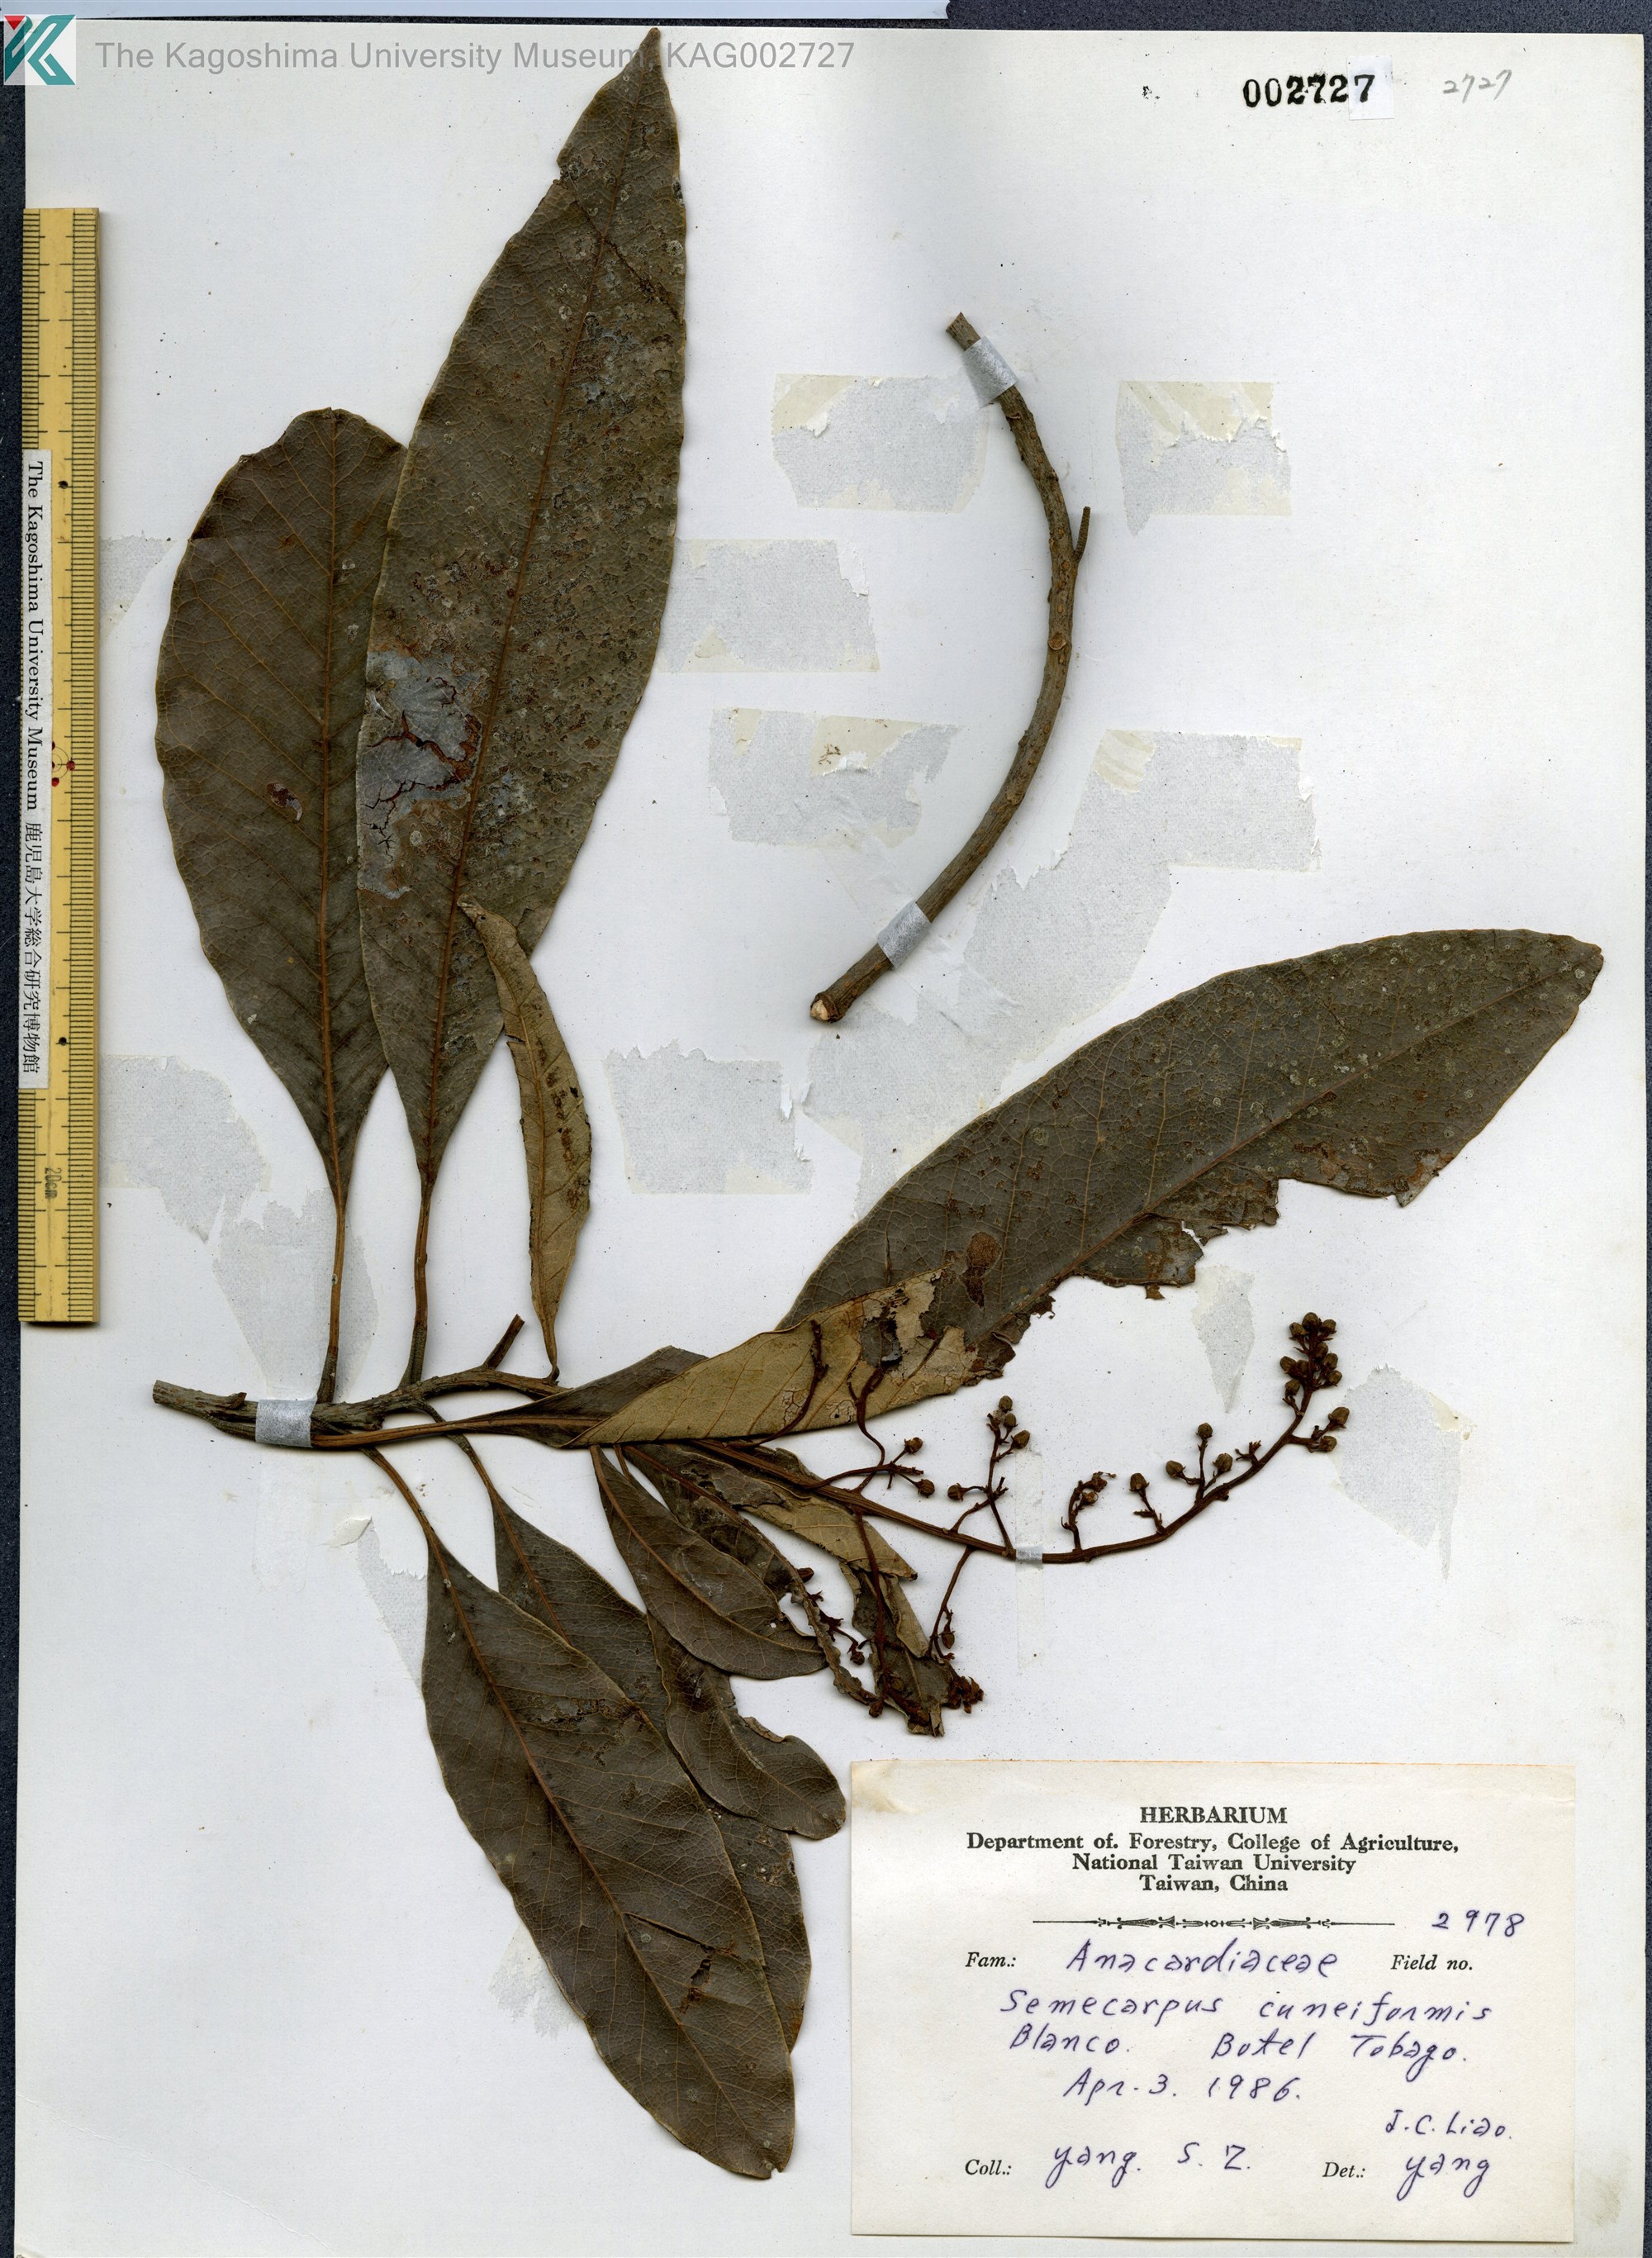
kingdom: Plantae
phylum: Tracheophyta
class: Magnoliopsida
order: Sapindales
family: Anacardiaceae
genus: Semecarpus
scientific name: Semecarpus cuneiformis
